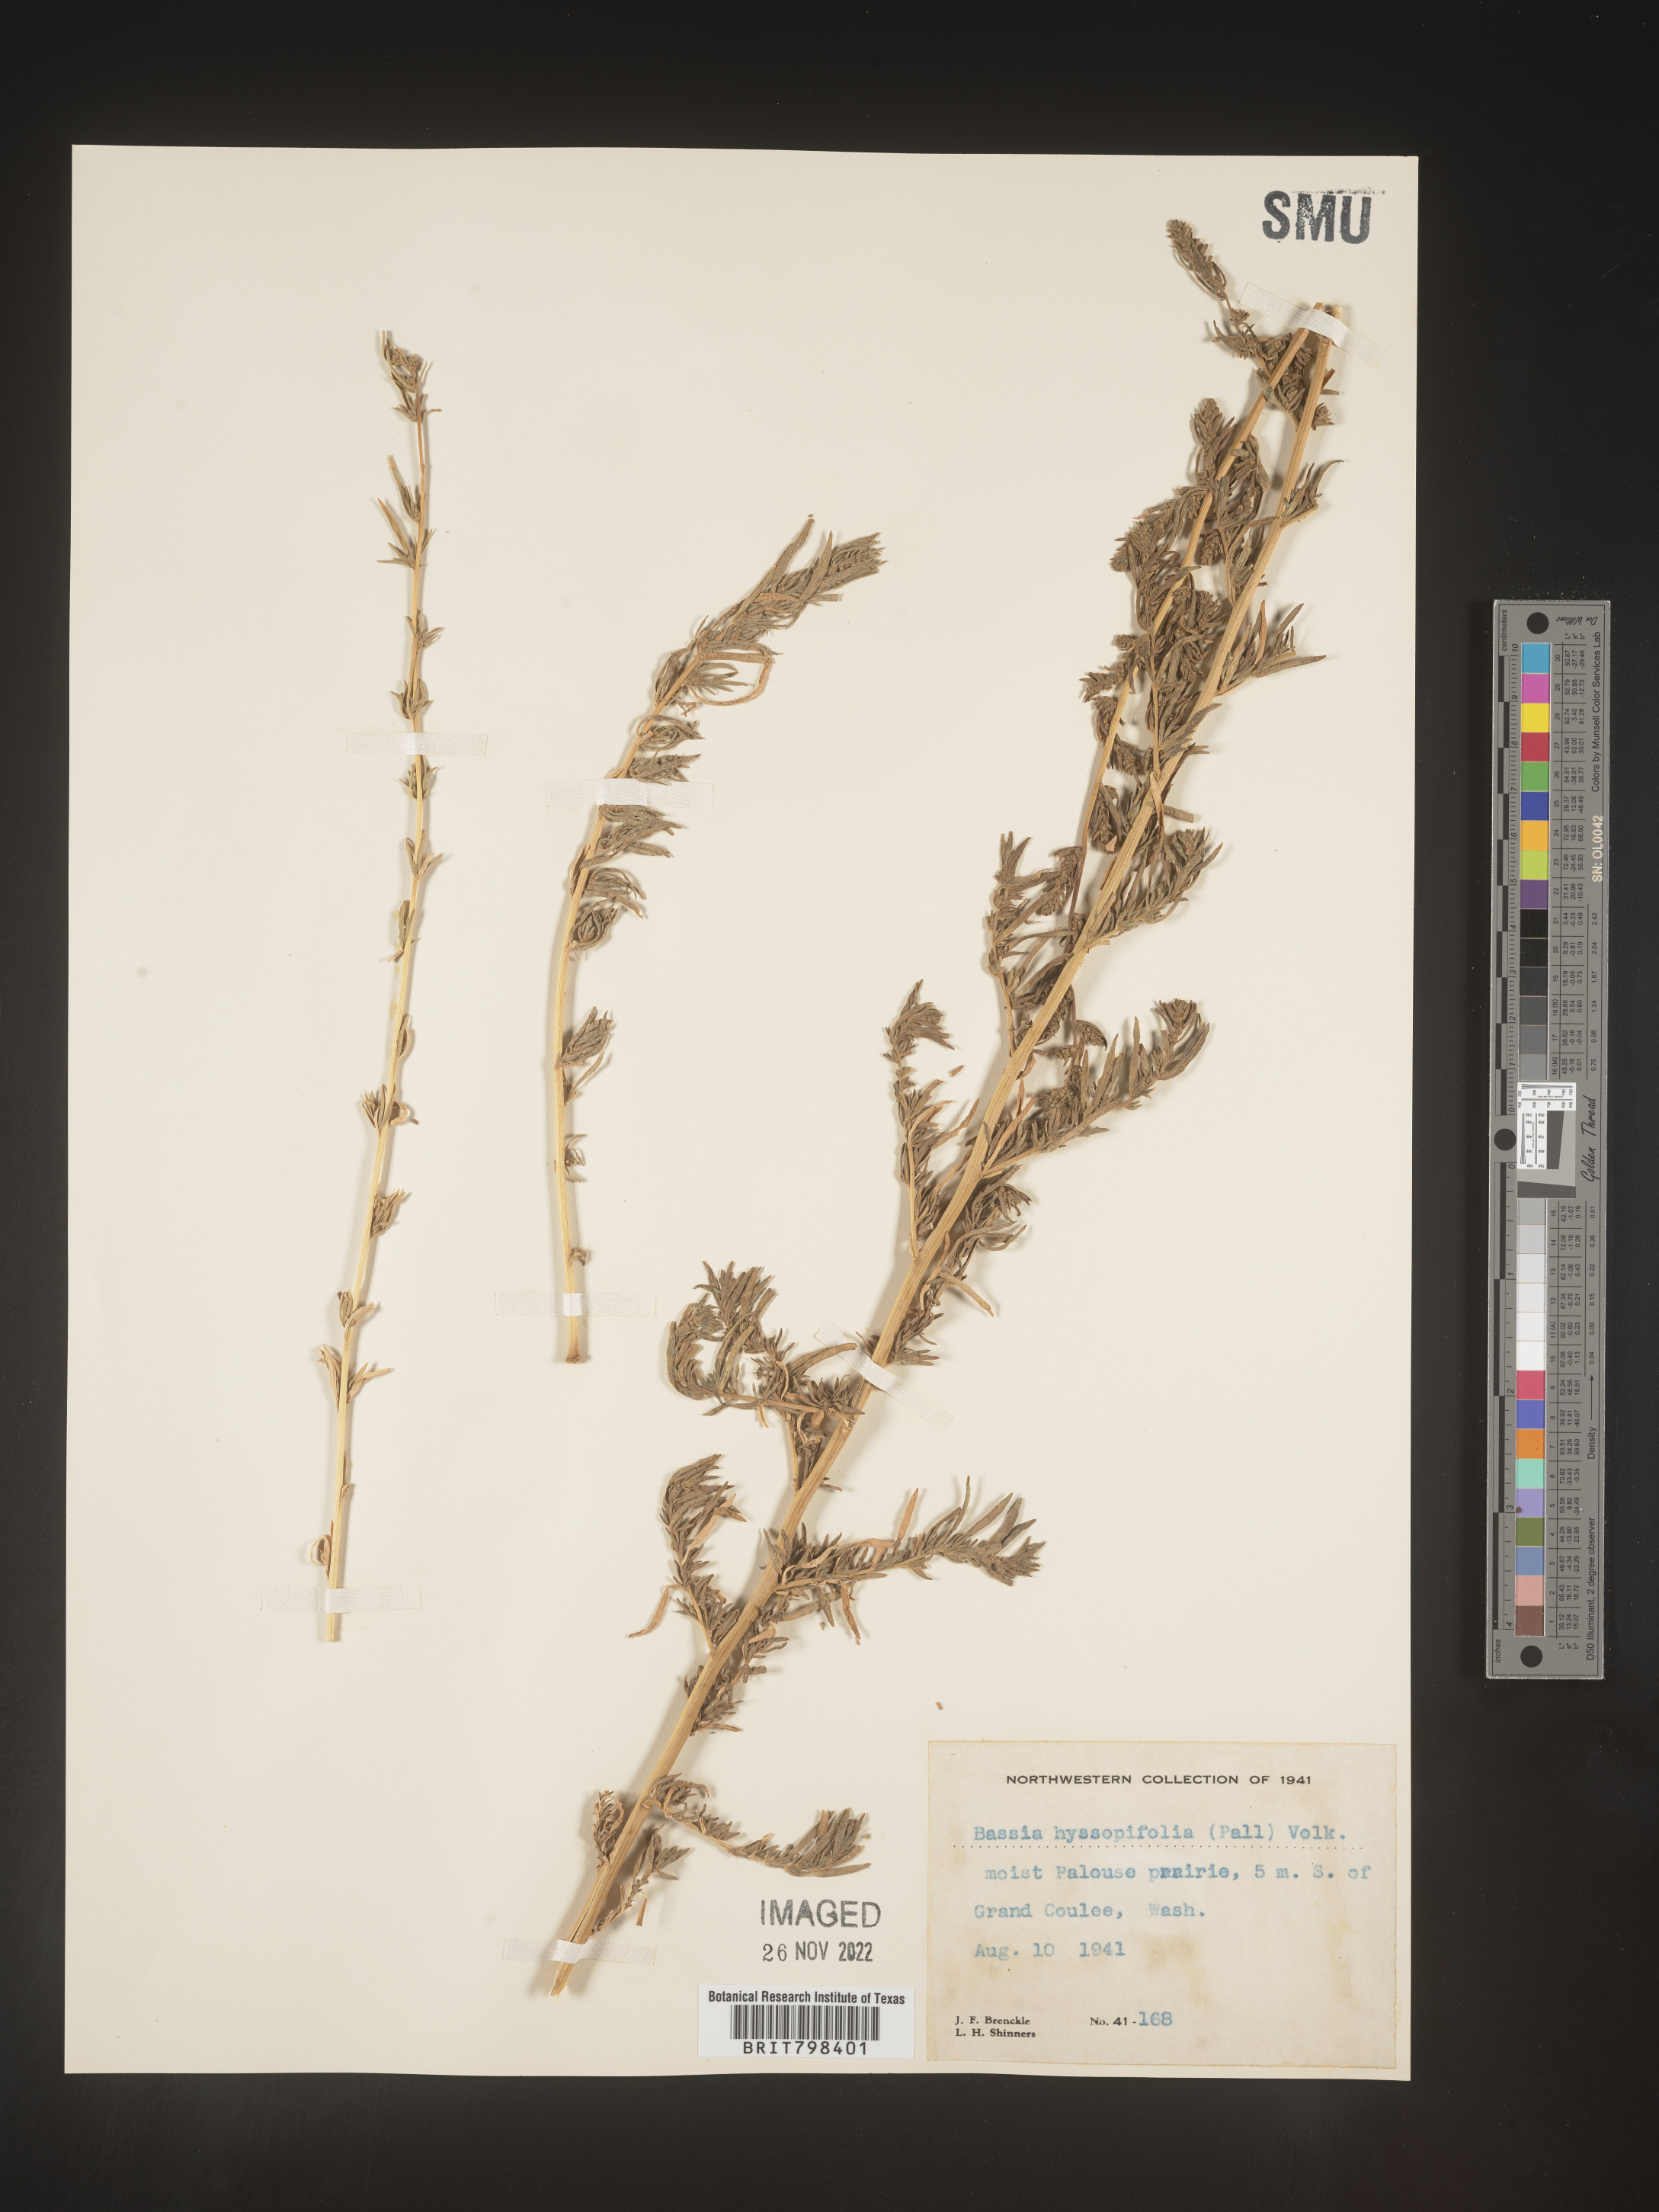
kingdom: Plantae
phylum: Tracheophyta
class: Magnoliopsida
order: Caryophyllales
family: Amaranthaceae
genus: Bassia
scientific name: Bassia scoparia
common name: Belvedere
